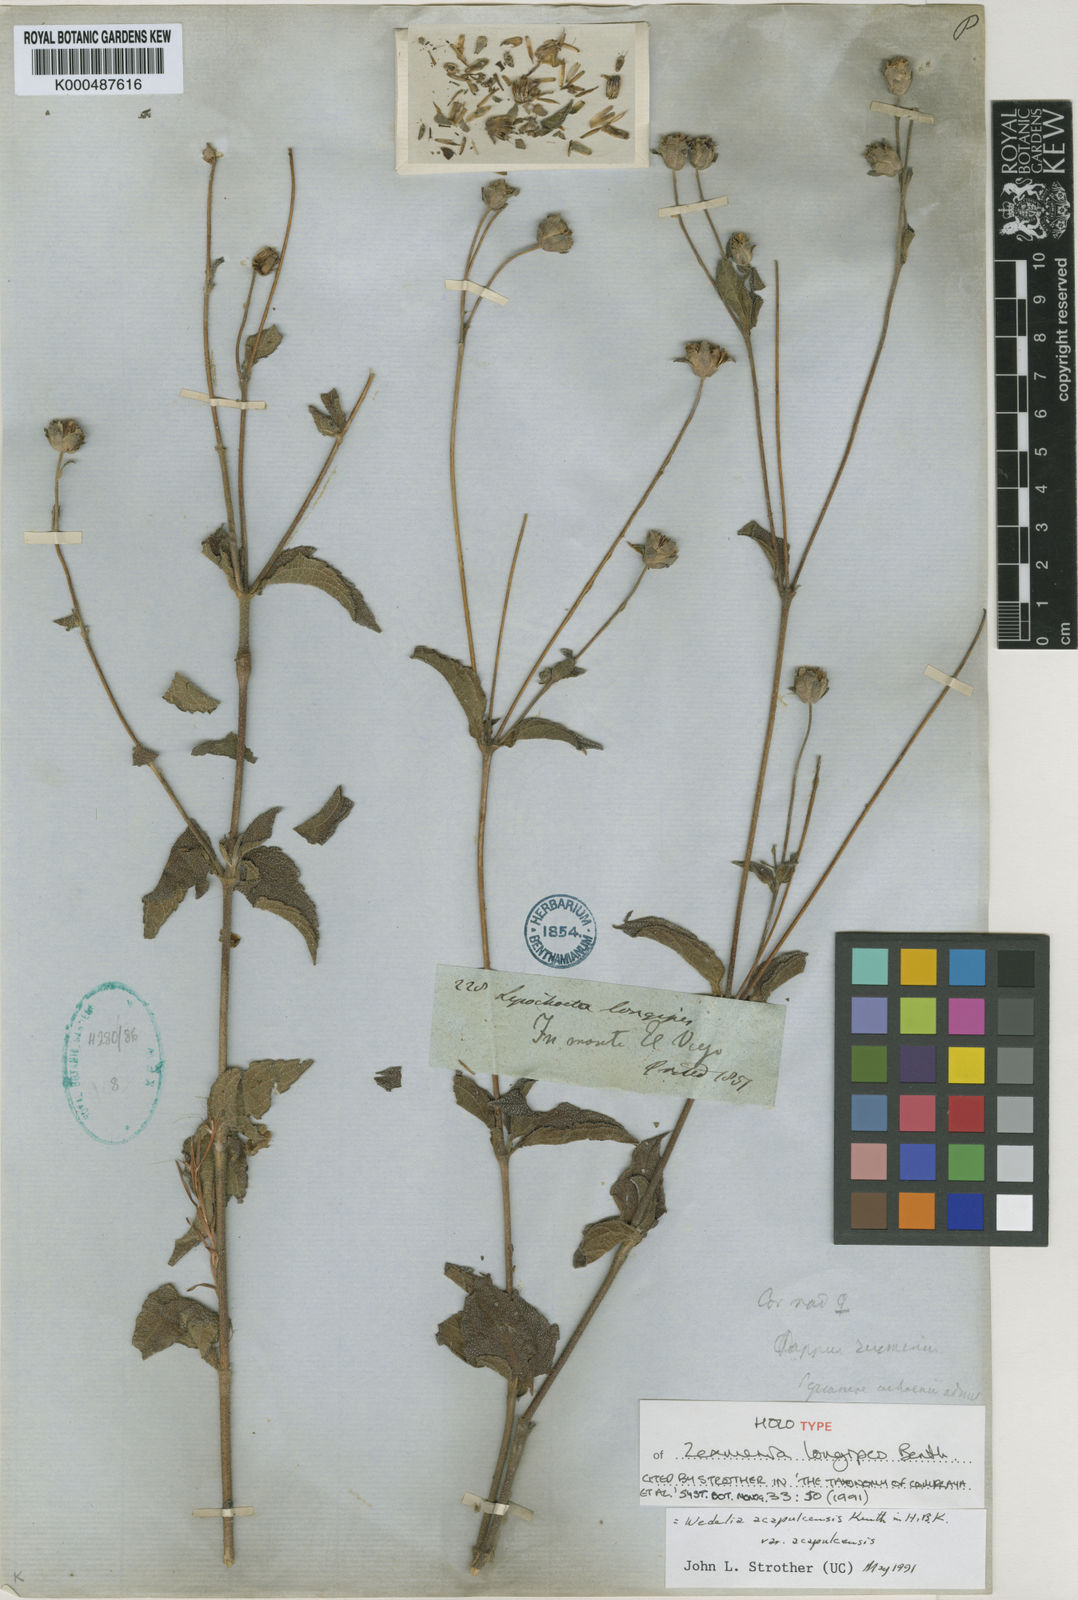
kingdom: Plantae
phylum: Tracheophyta
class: Magnoliopsida
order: Asterales
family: Asteraceae
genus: Wedelia
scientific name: Wedelia acapulcensis
